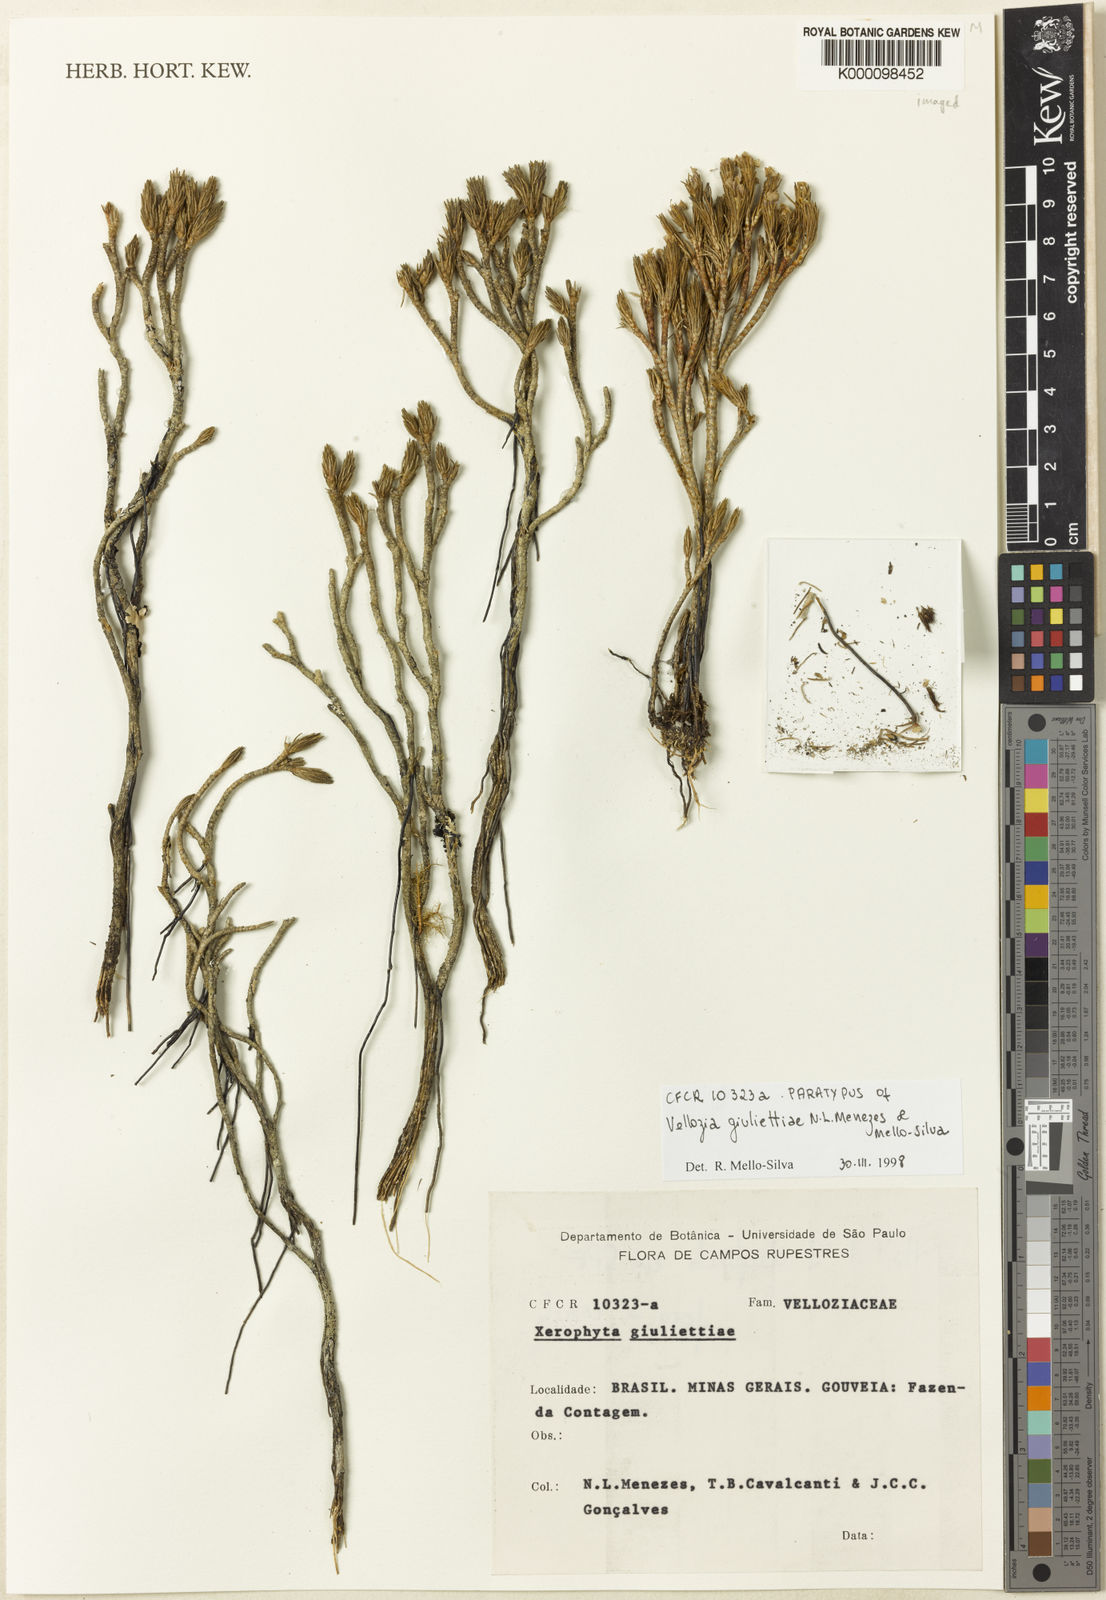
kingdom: Plantae
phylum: Tracheophyta
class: Liliopsida
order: Pandanales
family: Velloziaceae
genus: Vellozia
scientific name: Vellozia
